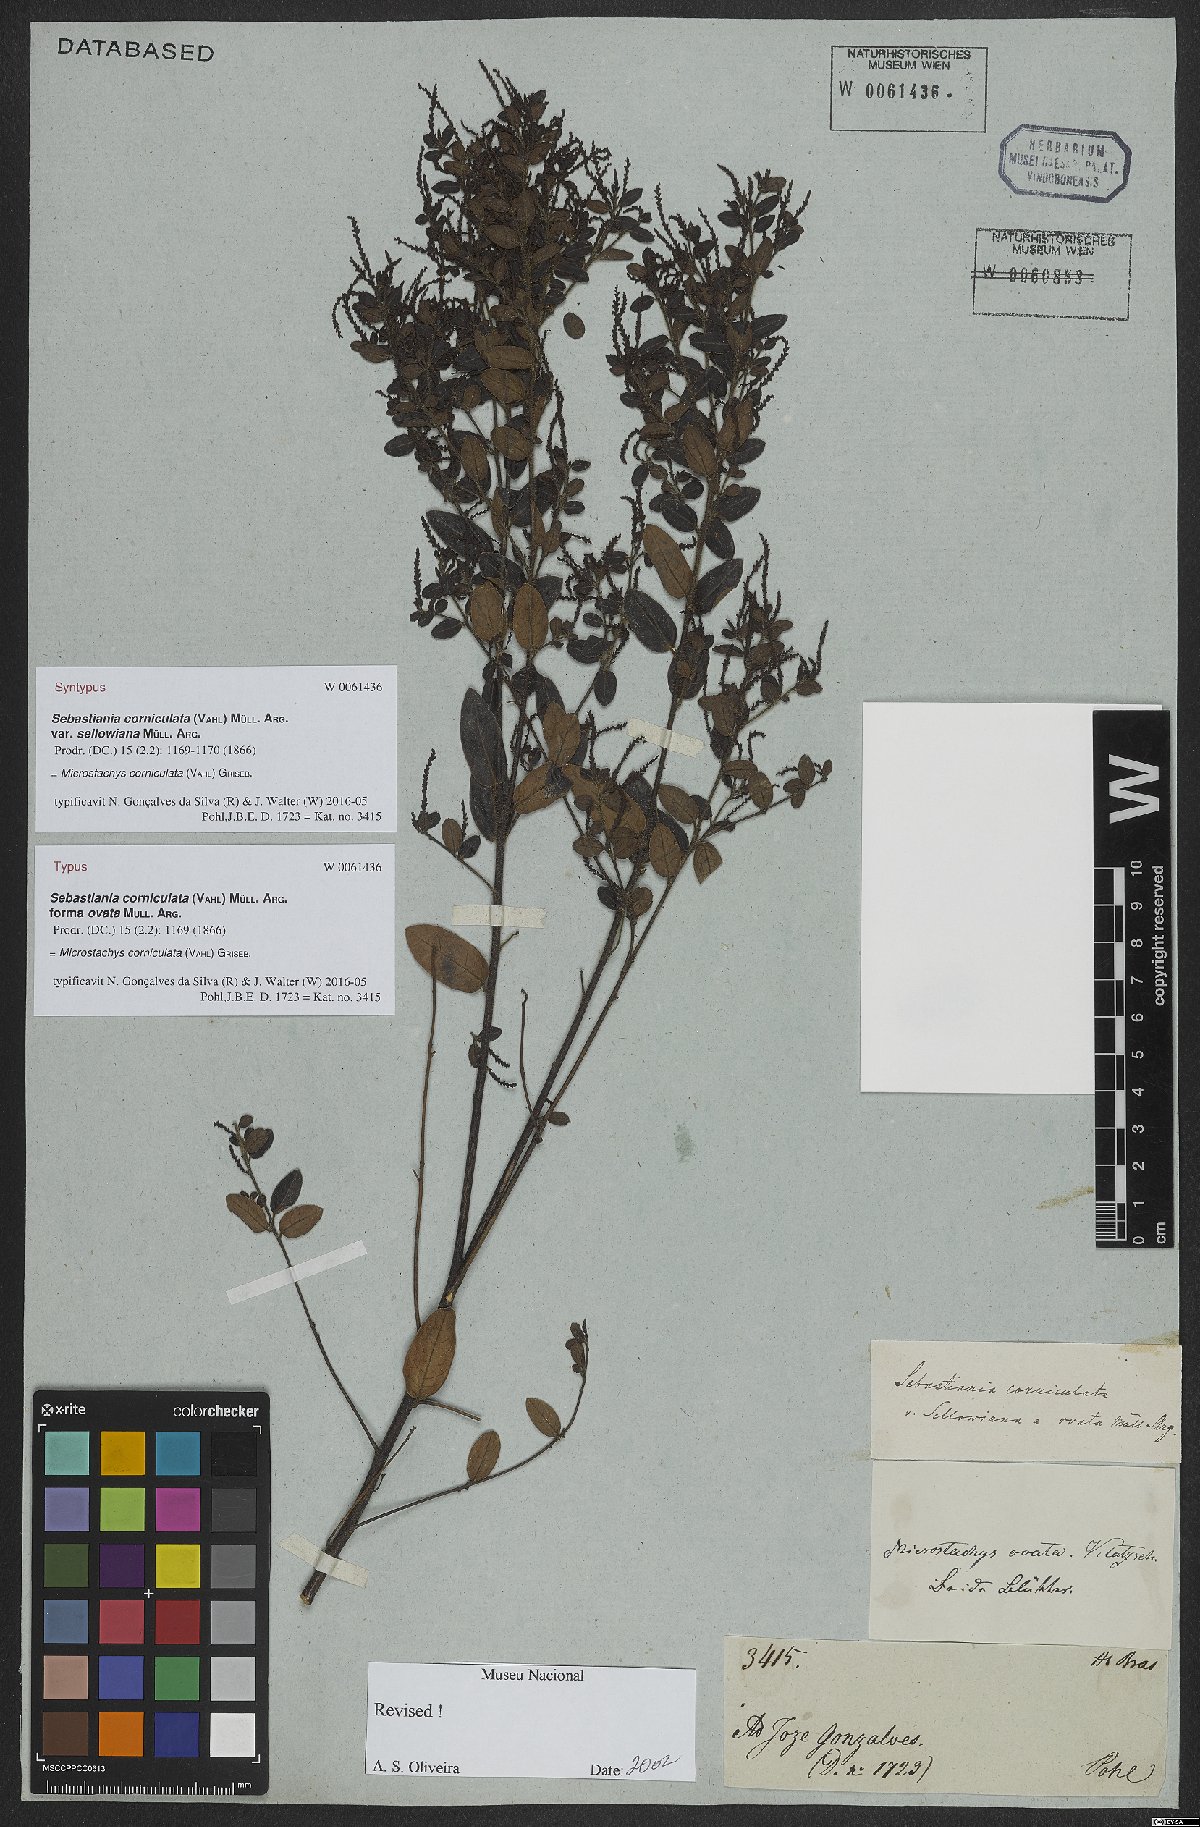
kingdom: Plantae
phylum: Tracheophyta
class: Magnoliopsida
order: Malpighiales
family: Euphorbiaceae
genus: Microstachys
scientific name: Microstachys corniculata
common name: Hato tejas
